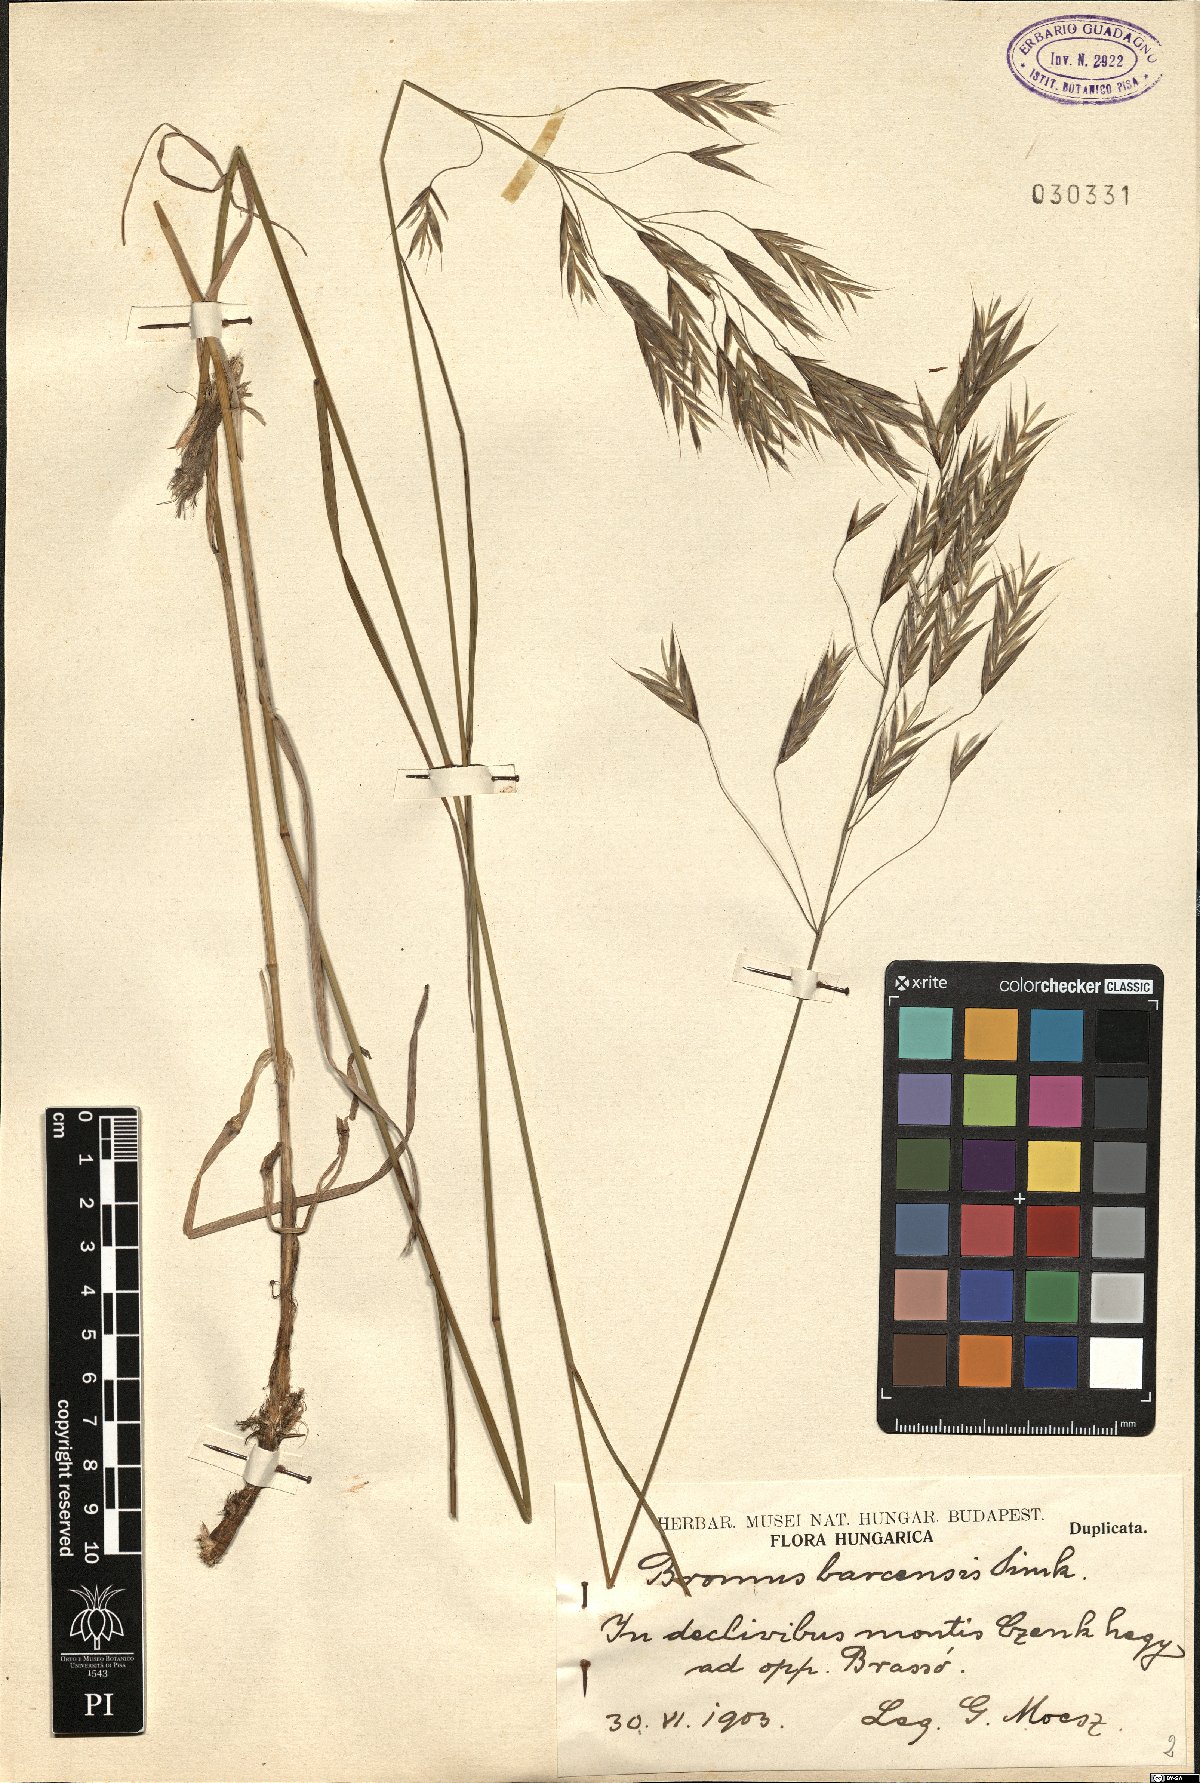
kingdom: Plantae
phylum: Tracheophyta
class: Liliopsida
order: Poales
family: Poaceae
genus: Bromus
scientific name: Bromus riparius
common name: Meadow brome
